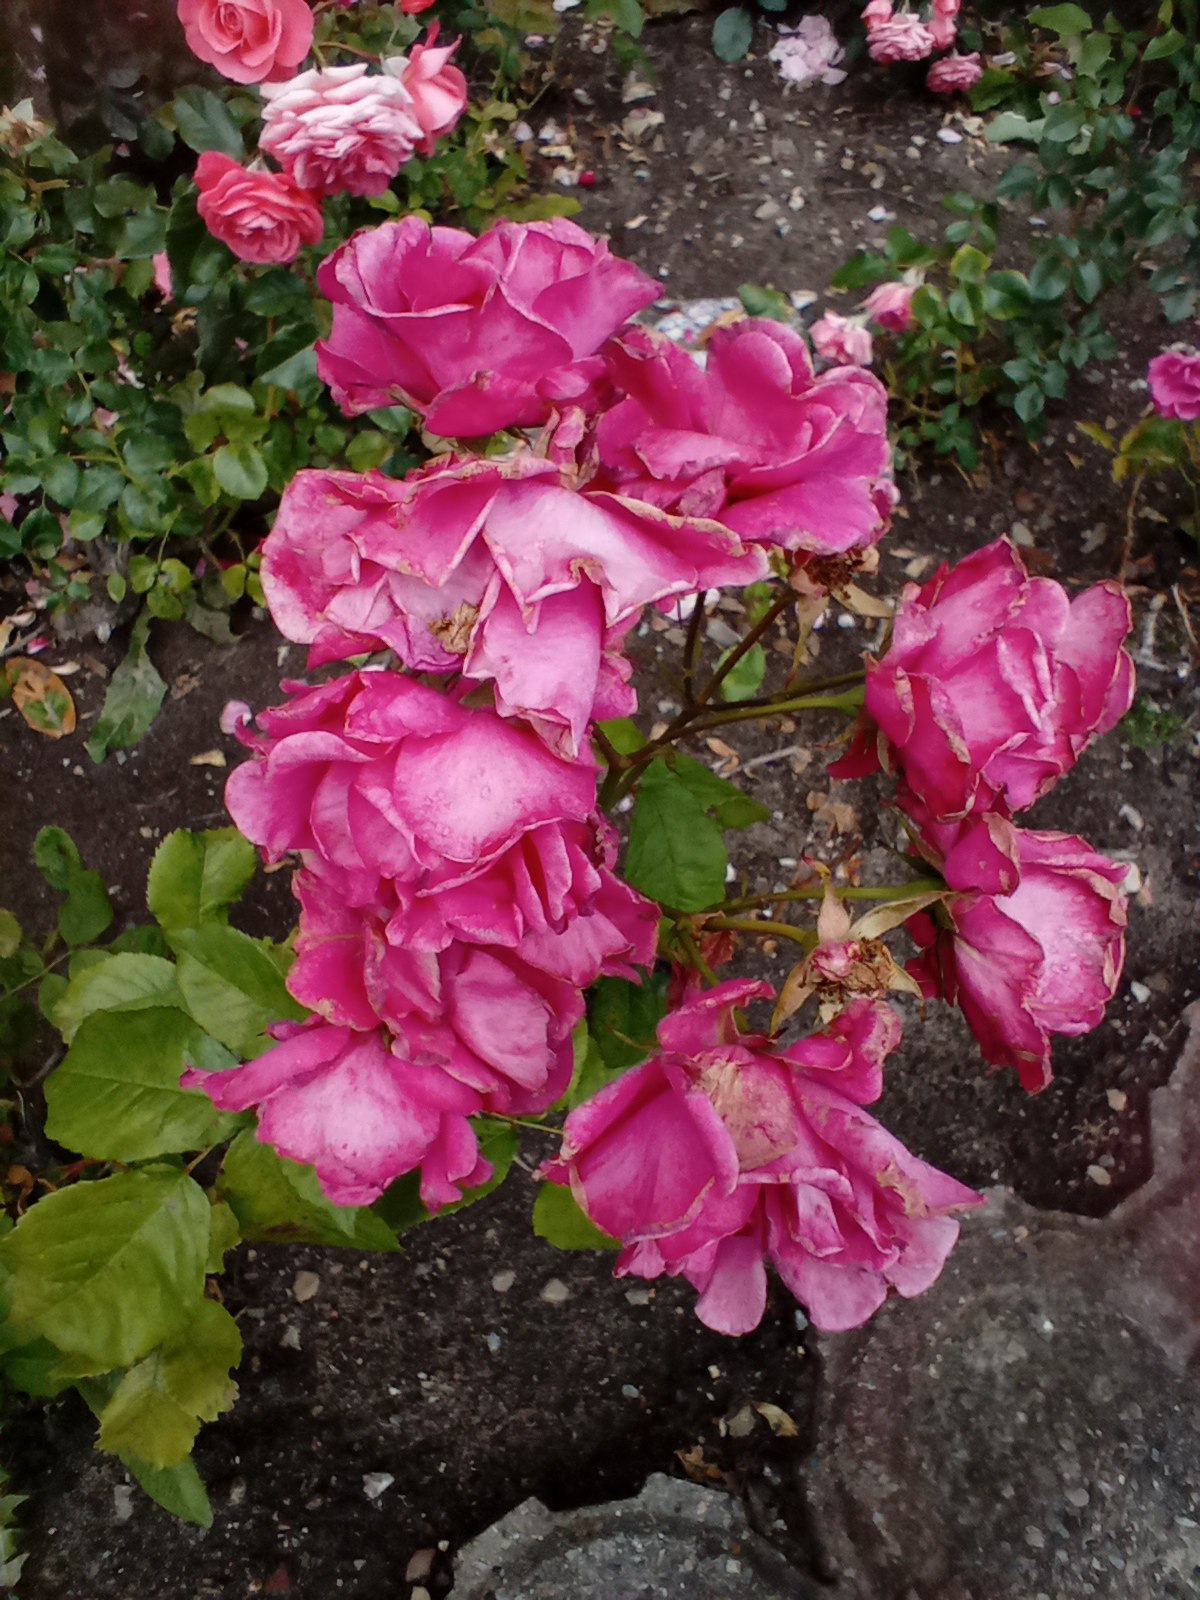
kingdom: Plantae
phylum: Tracheophyta
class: Magnoliopsida
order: Rosales
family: Rosaceae
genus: Rosa
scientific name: Rosa
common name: Roseslægten
